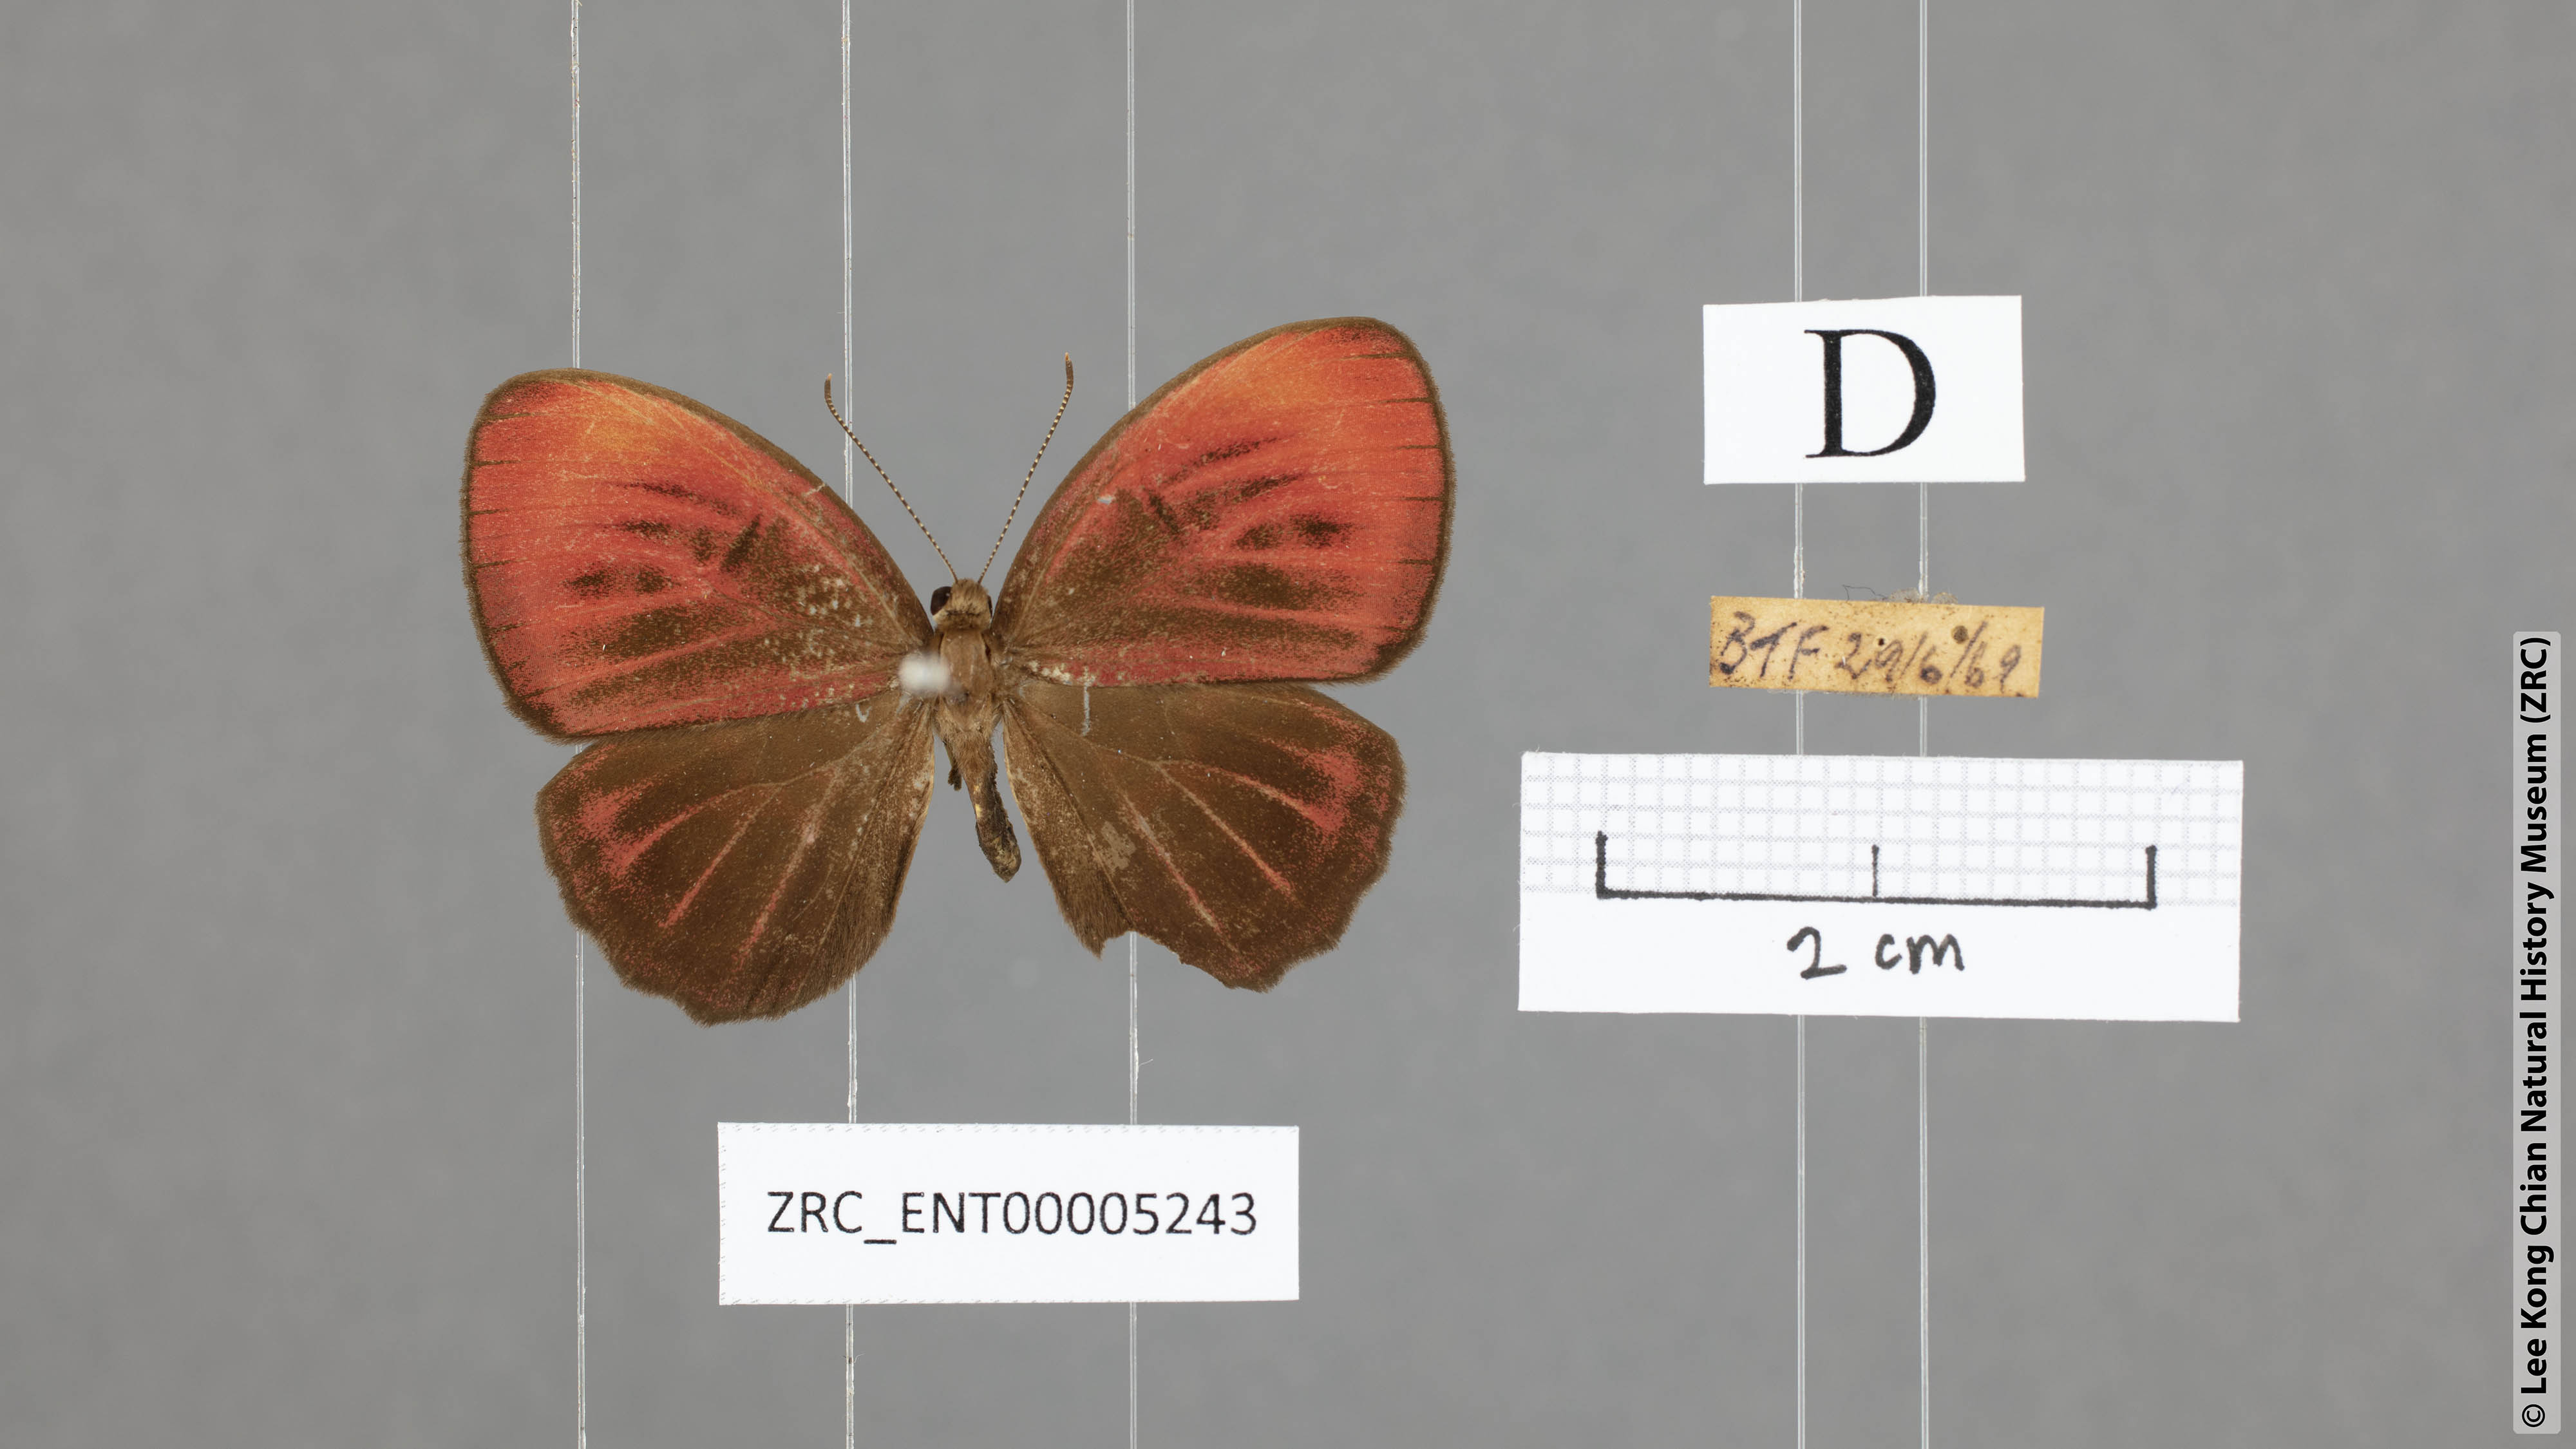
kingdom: Animalia
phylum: Arthropoda
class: Insecta
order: Lepidoptera
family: Riodinidae
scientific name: Riodinidae
